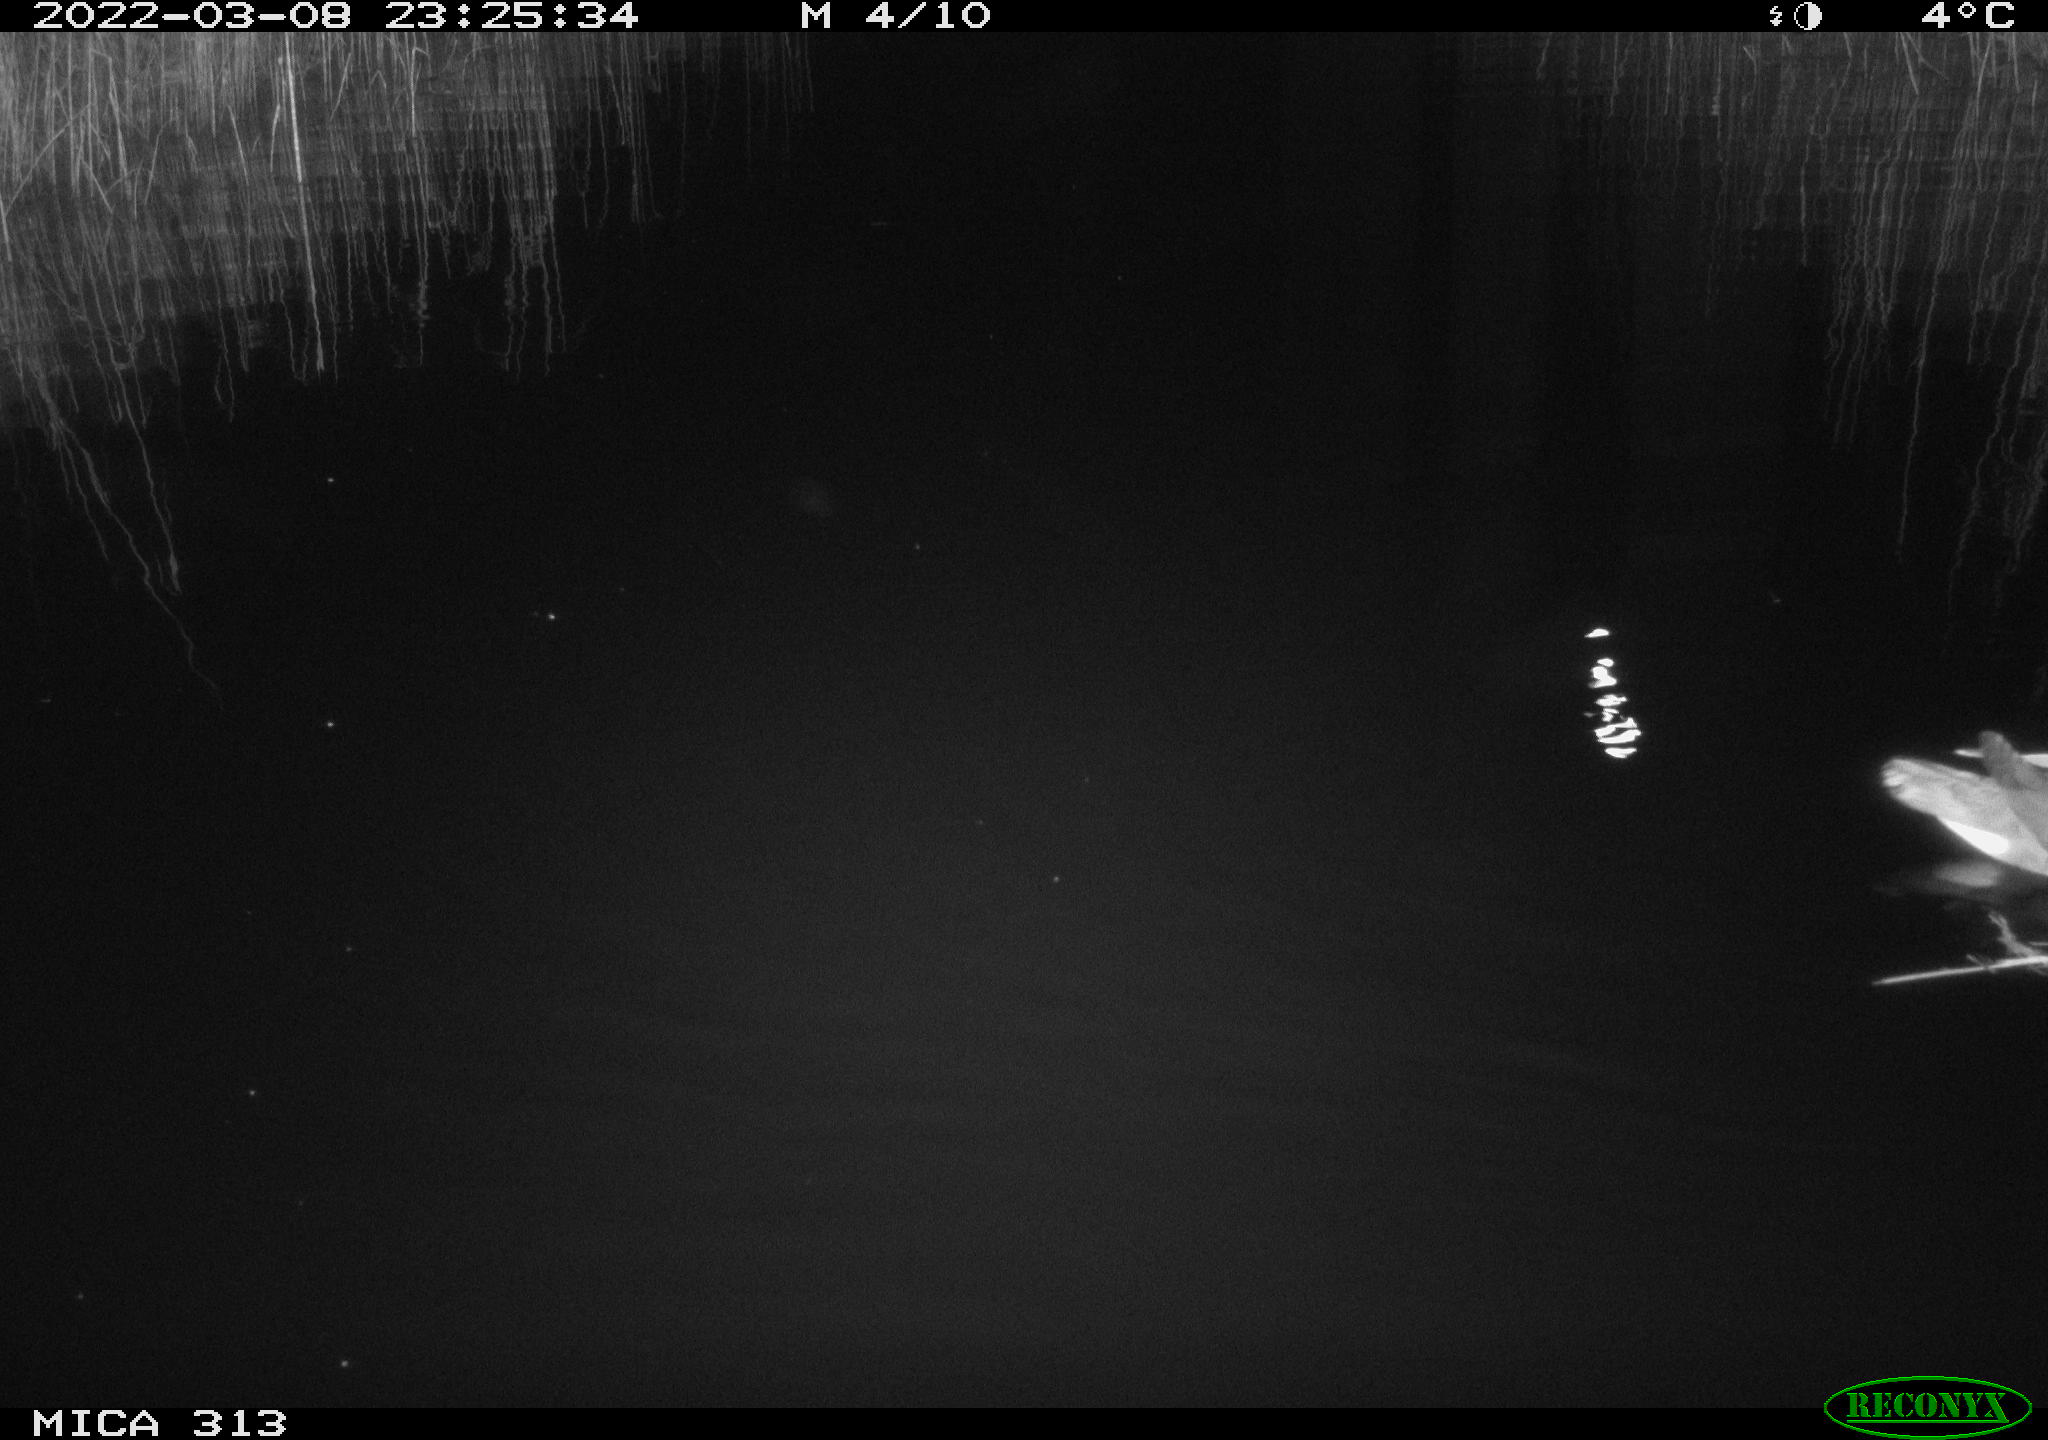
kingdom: Animalia
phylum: Chordata
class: Aves
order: Gruiformes
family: Rallidae
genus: Gallinula
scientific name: Gallinula chloropus
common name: Common moorhen
